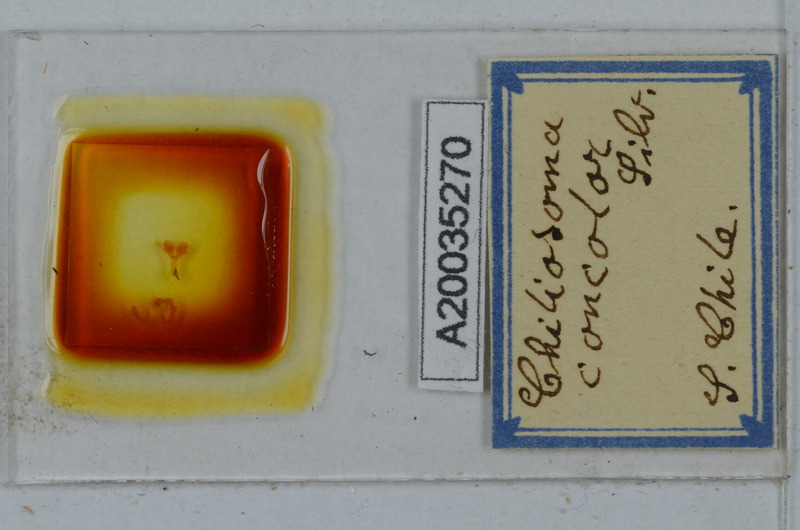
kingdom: Animalia
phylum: Arthropoda
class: Diplopoda
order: Polydesmida
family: Dalodesmidae
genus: Tsagonus
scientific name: Tsagonus muermo
